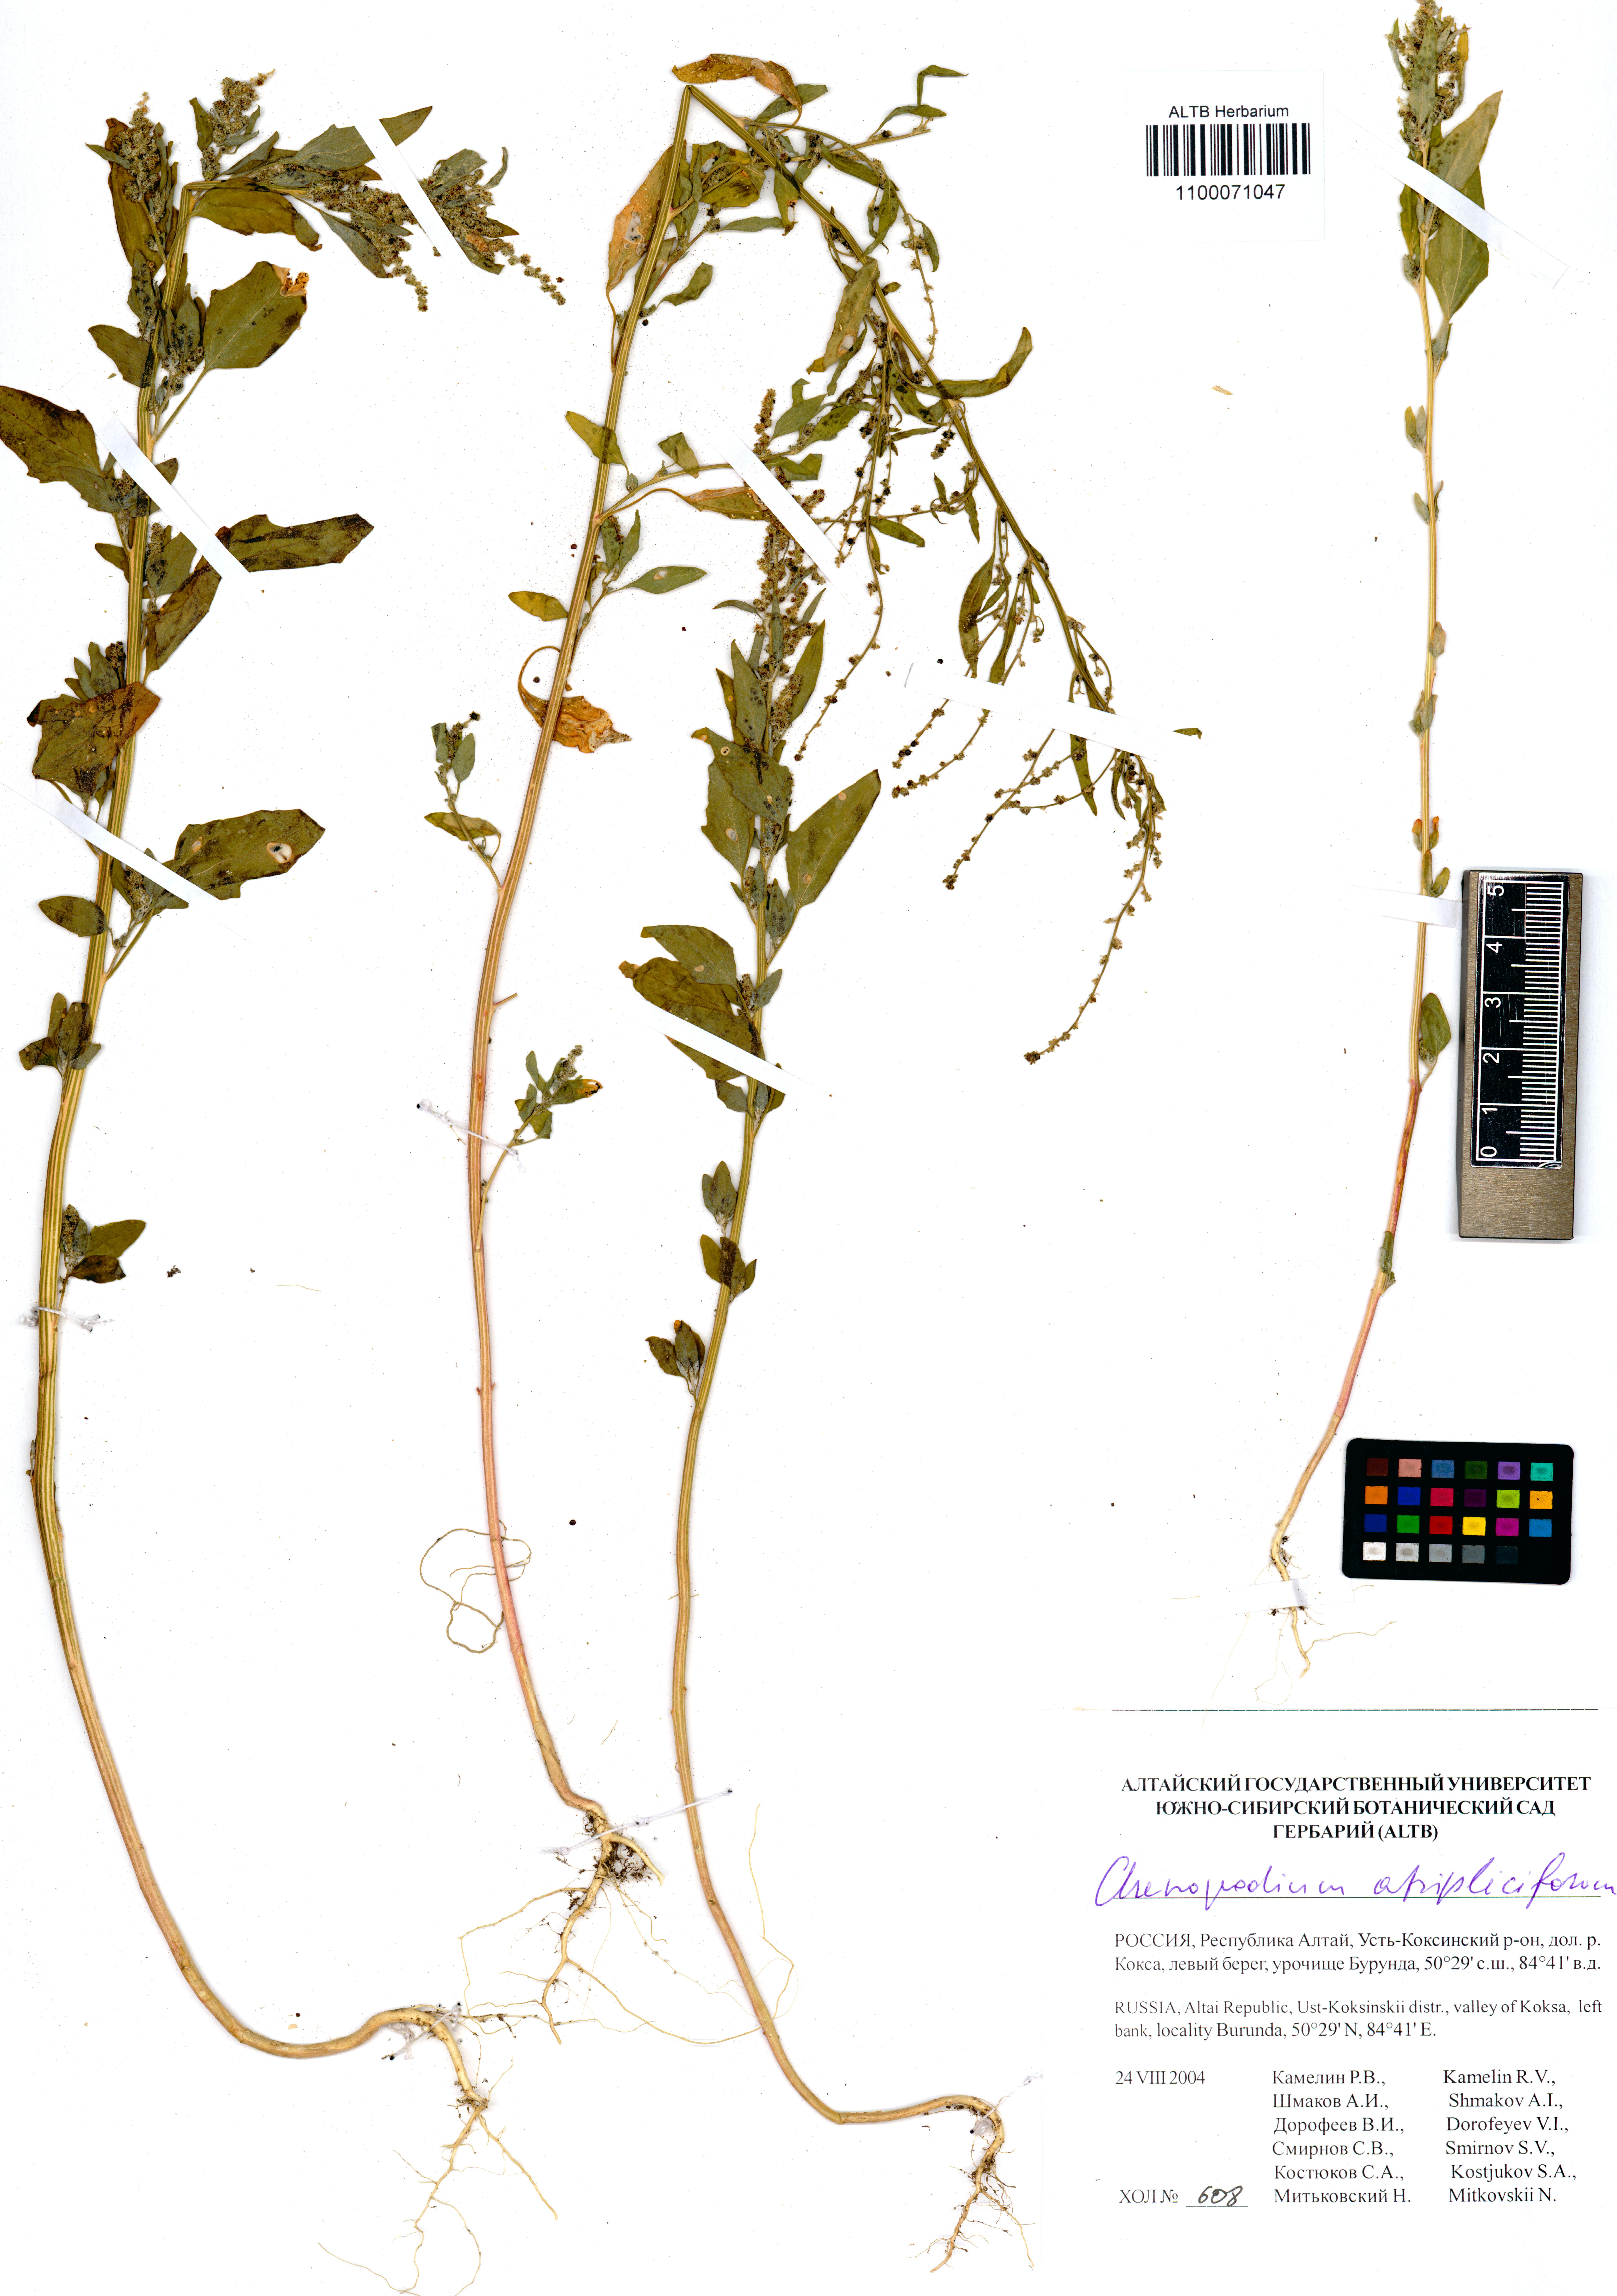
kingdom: Plantae
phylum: Tracheophyta
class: Magnoliopsida
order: Caryophyllales
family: Amaranthaceae
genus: Dysphania
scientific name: Dysphania atriplicifolia
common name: Plains tumbleweed
